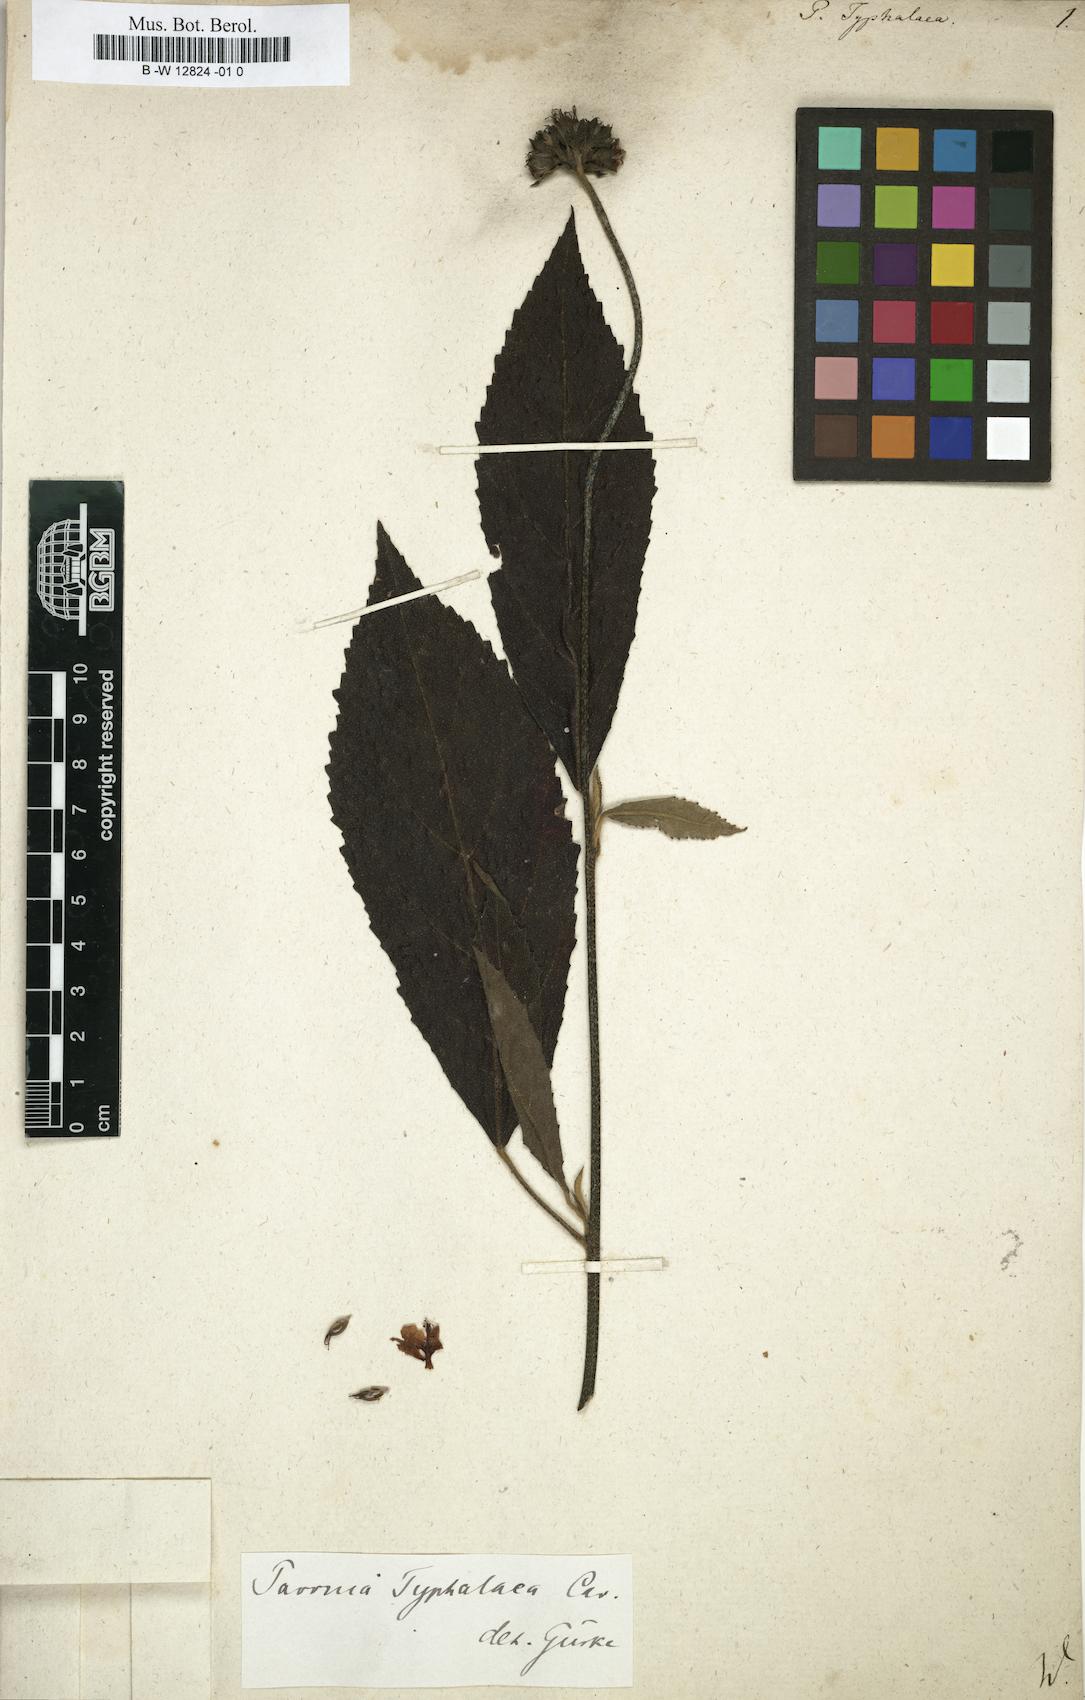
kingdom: Plantae
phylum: Tracheophyta
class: Magnoliopsida
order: Malvales
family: Malvaceae
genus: Pavonia
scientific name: Pavonia
